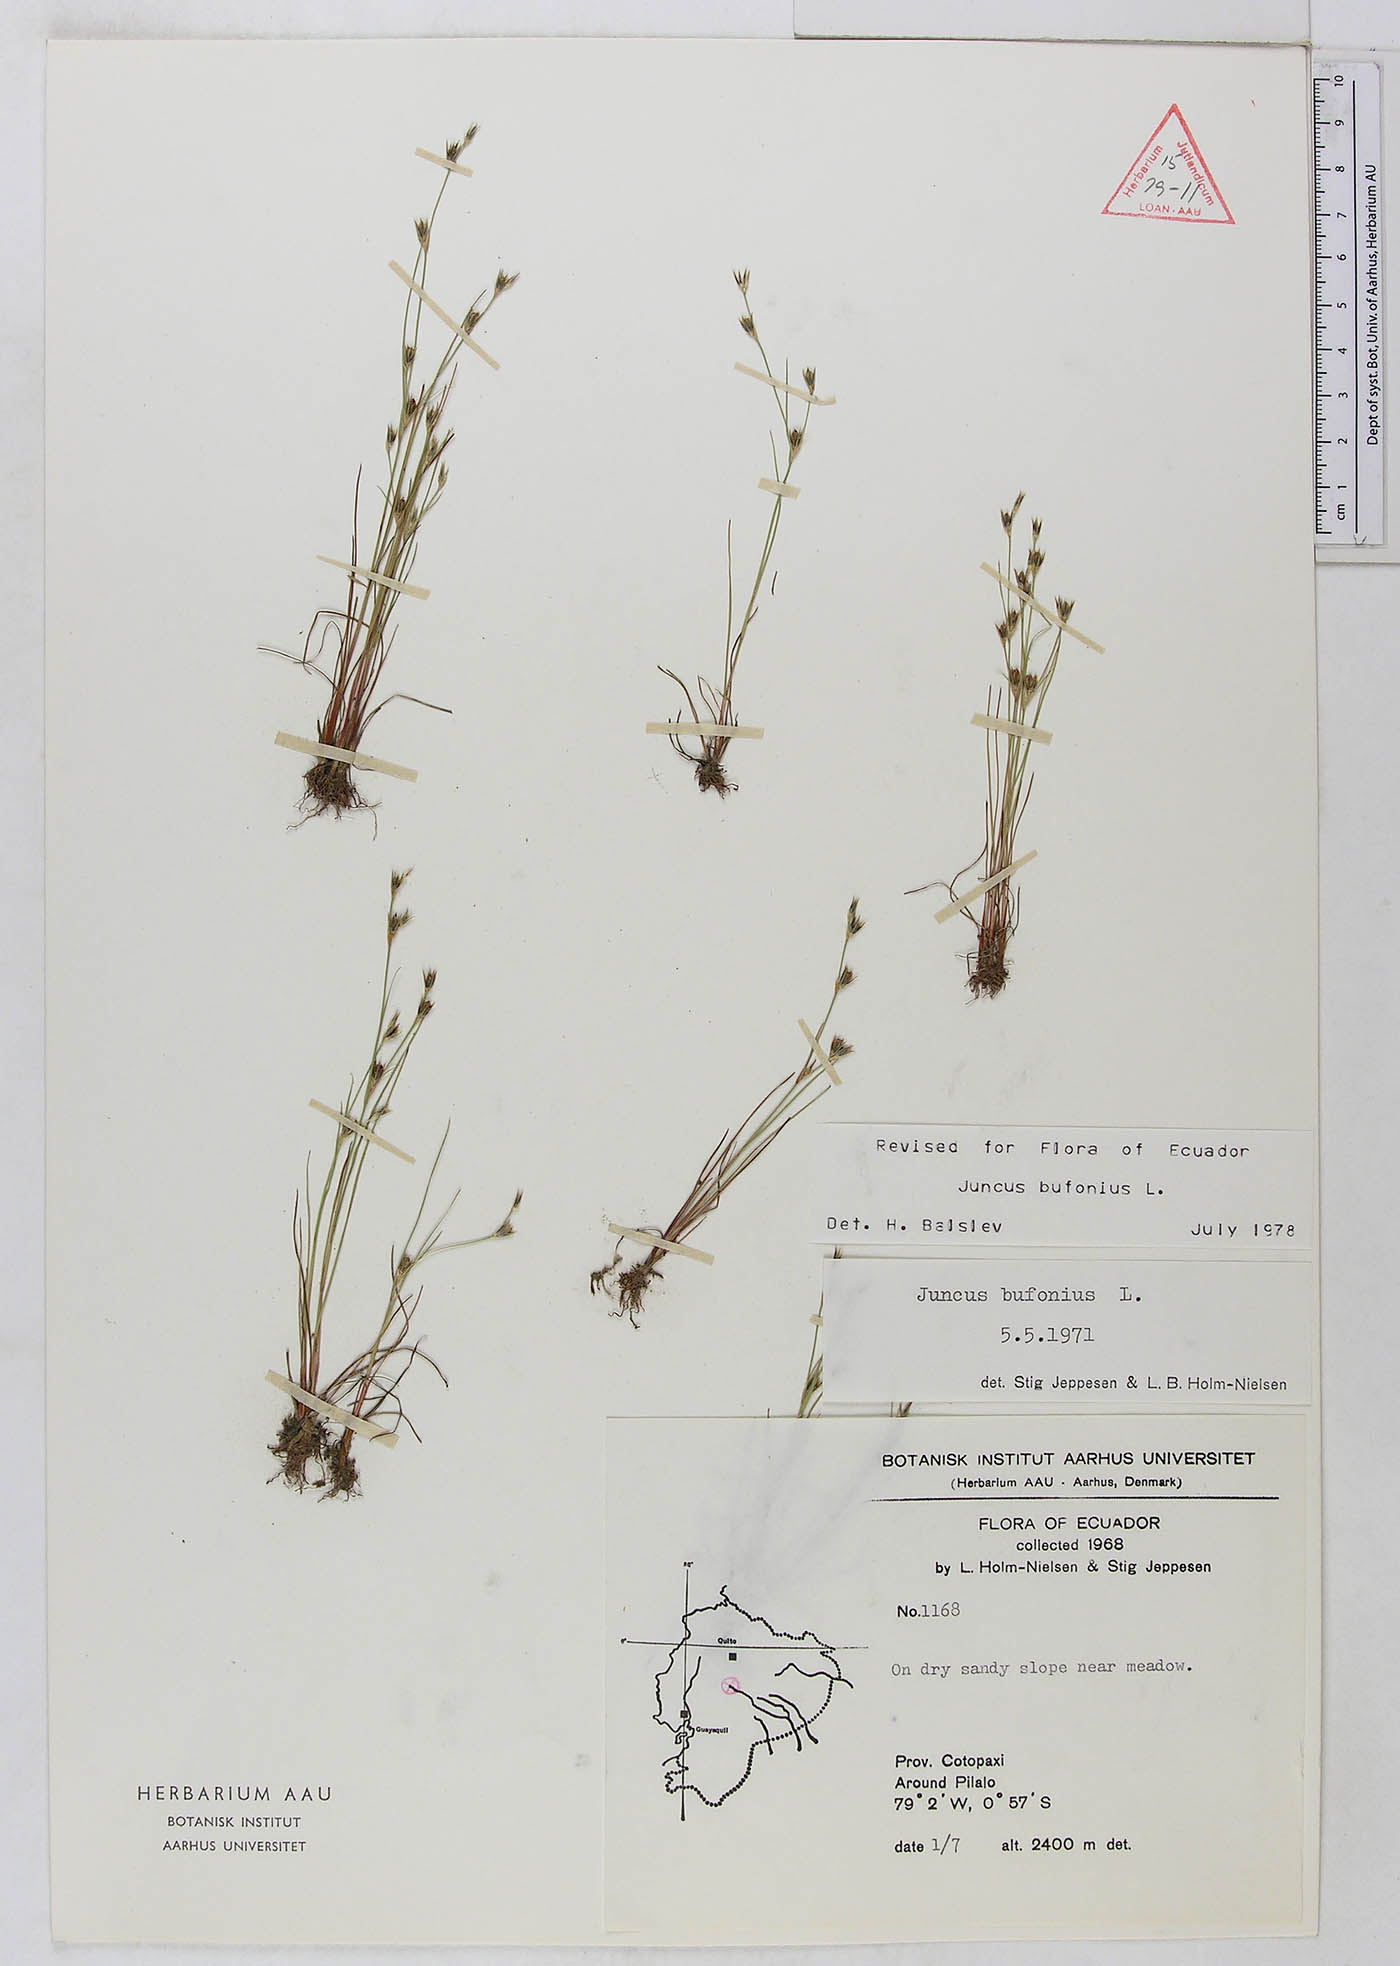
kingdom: Plantae
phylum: Tracheophyta
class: Liliopsida
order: Poales
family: Juncaceae
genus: Juncus
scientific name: Juncus bufonius
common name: Toad rush
